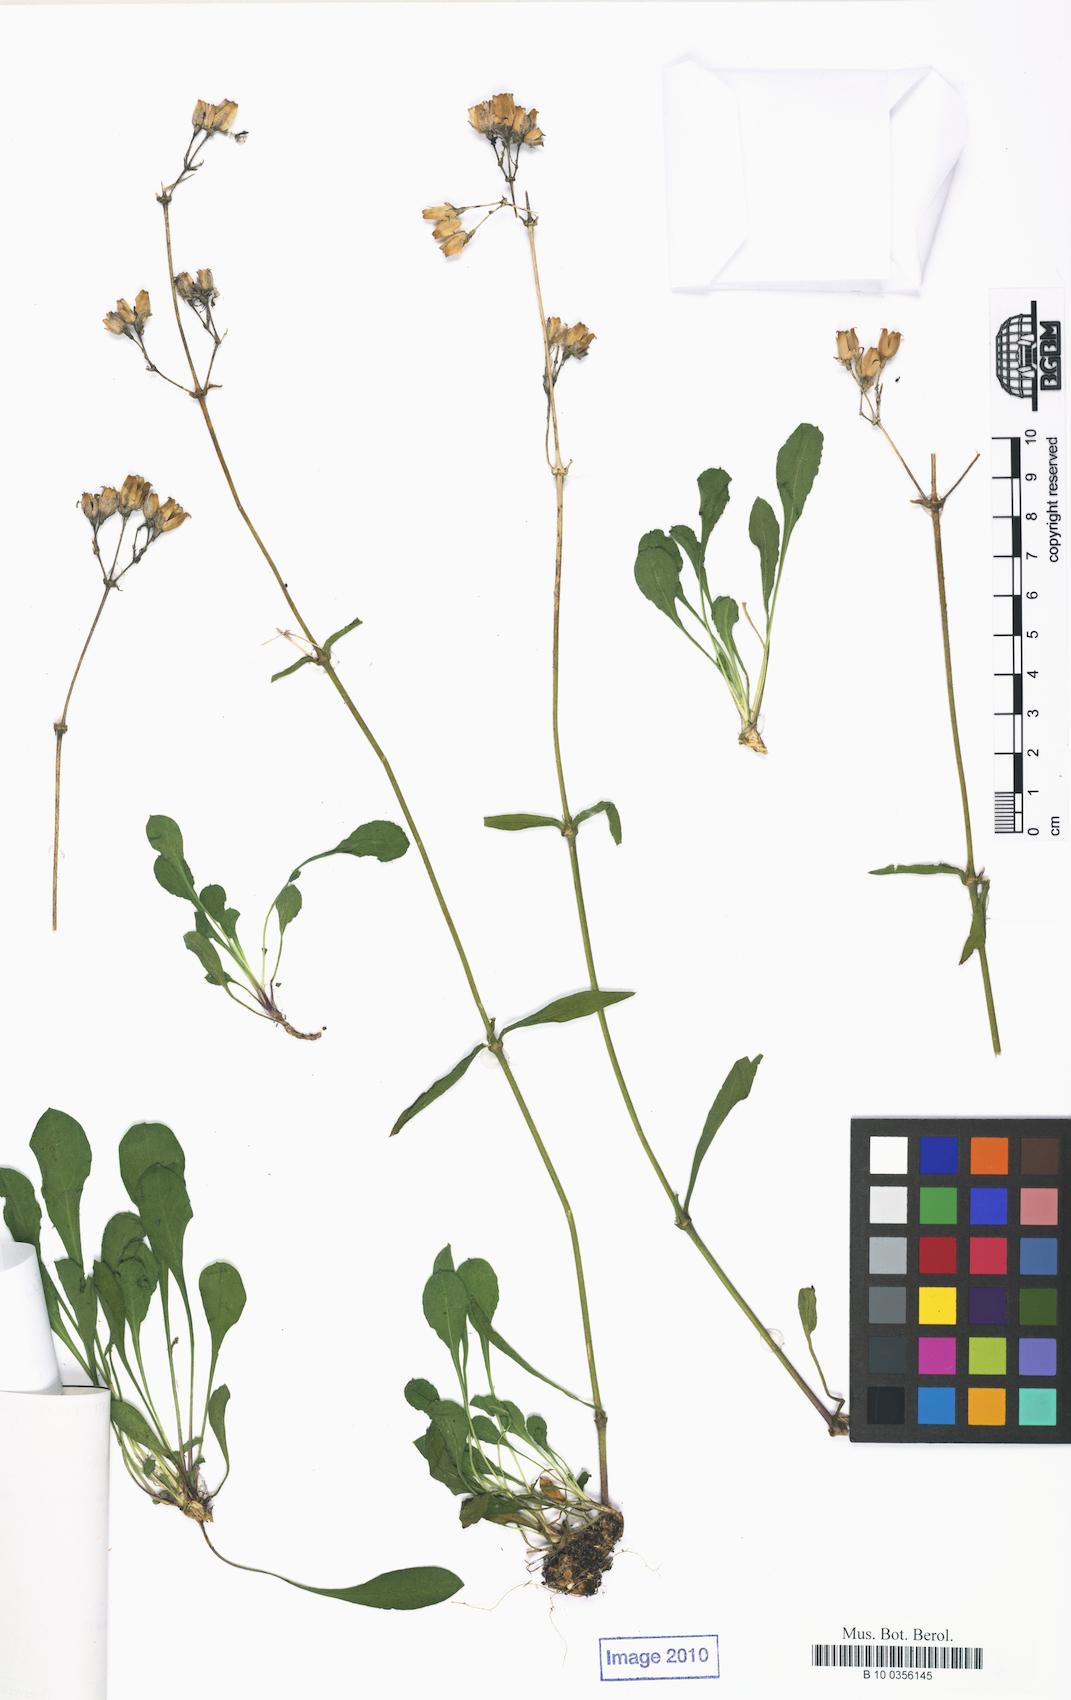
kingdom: Plantae
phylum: Tracheophyta
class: Magnoliopsida
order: Caryophyllales
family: Caryophyllaceae
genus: Silene
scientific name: Silene nutans
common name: Nottingham catchfly
